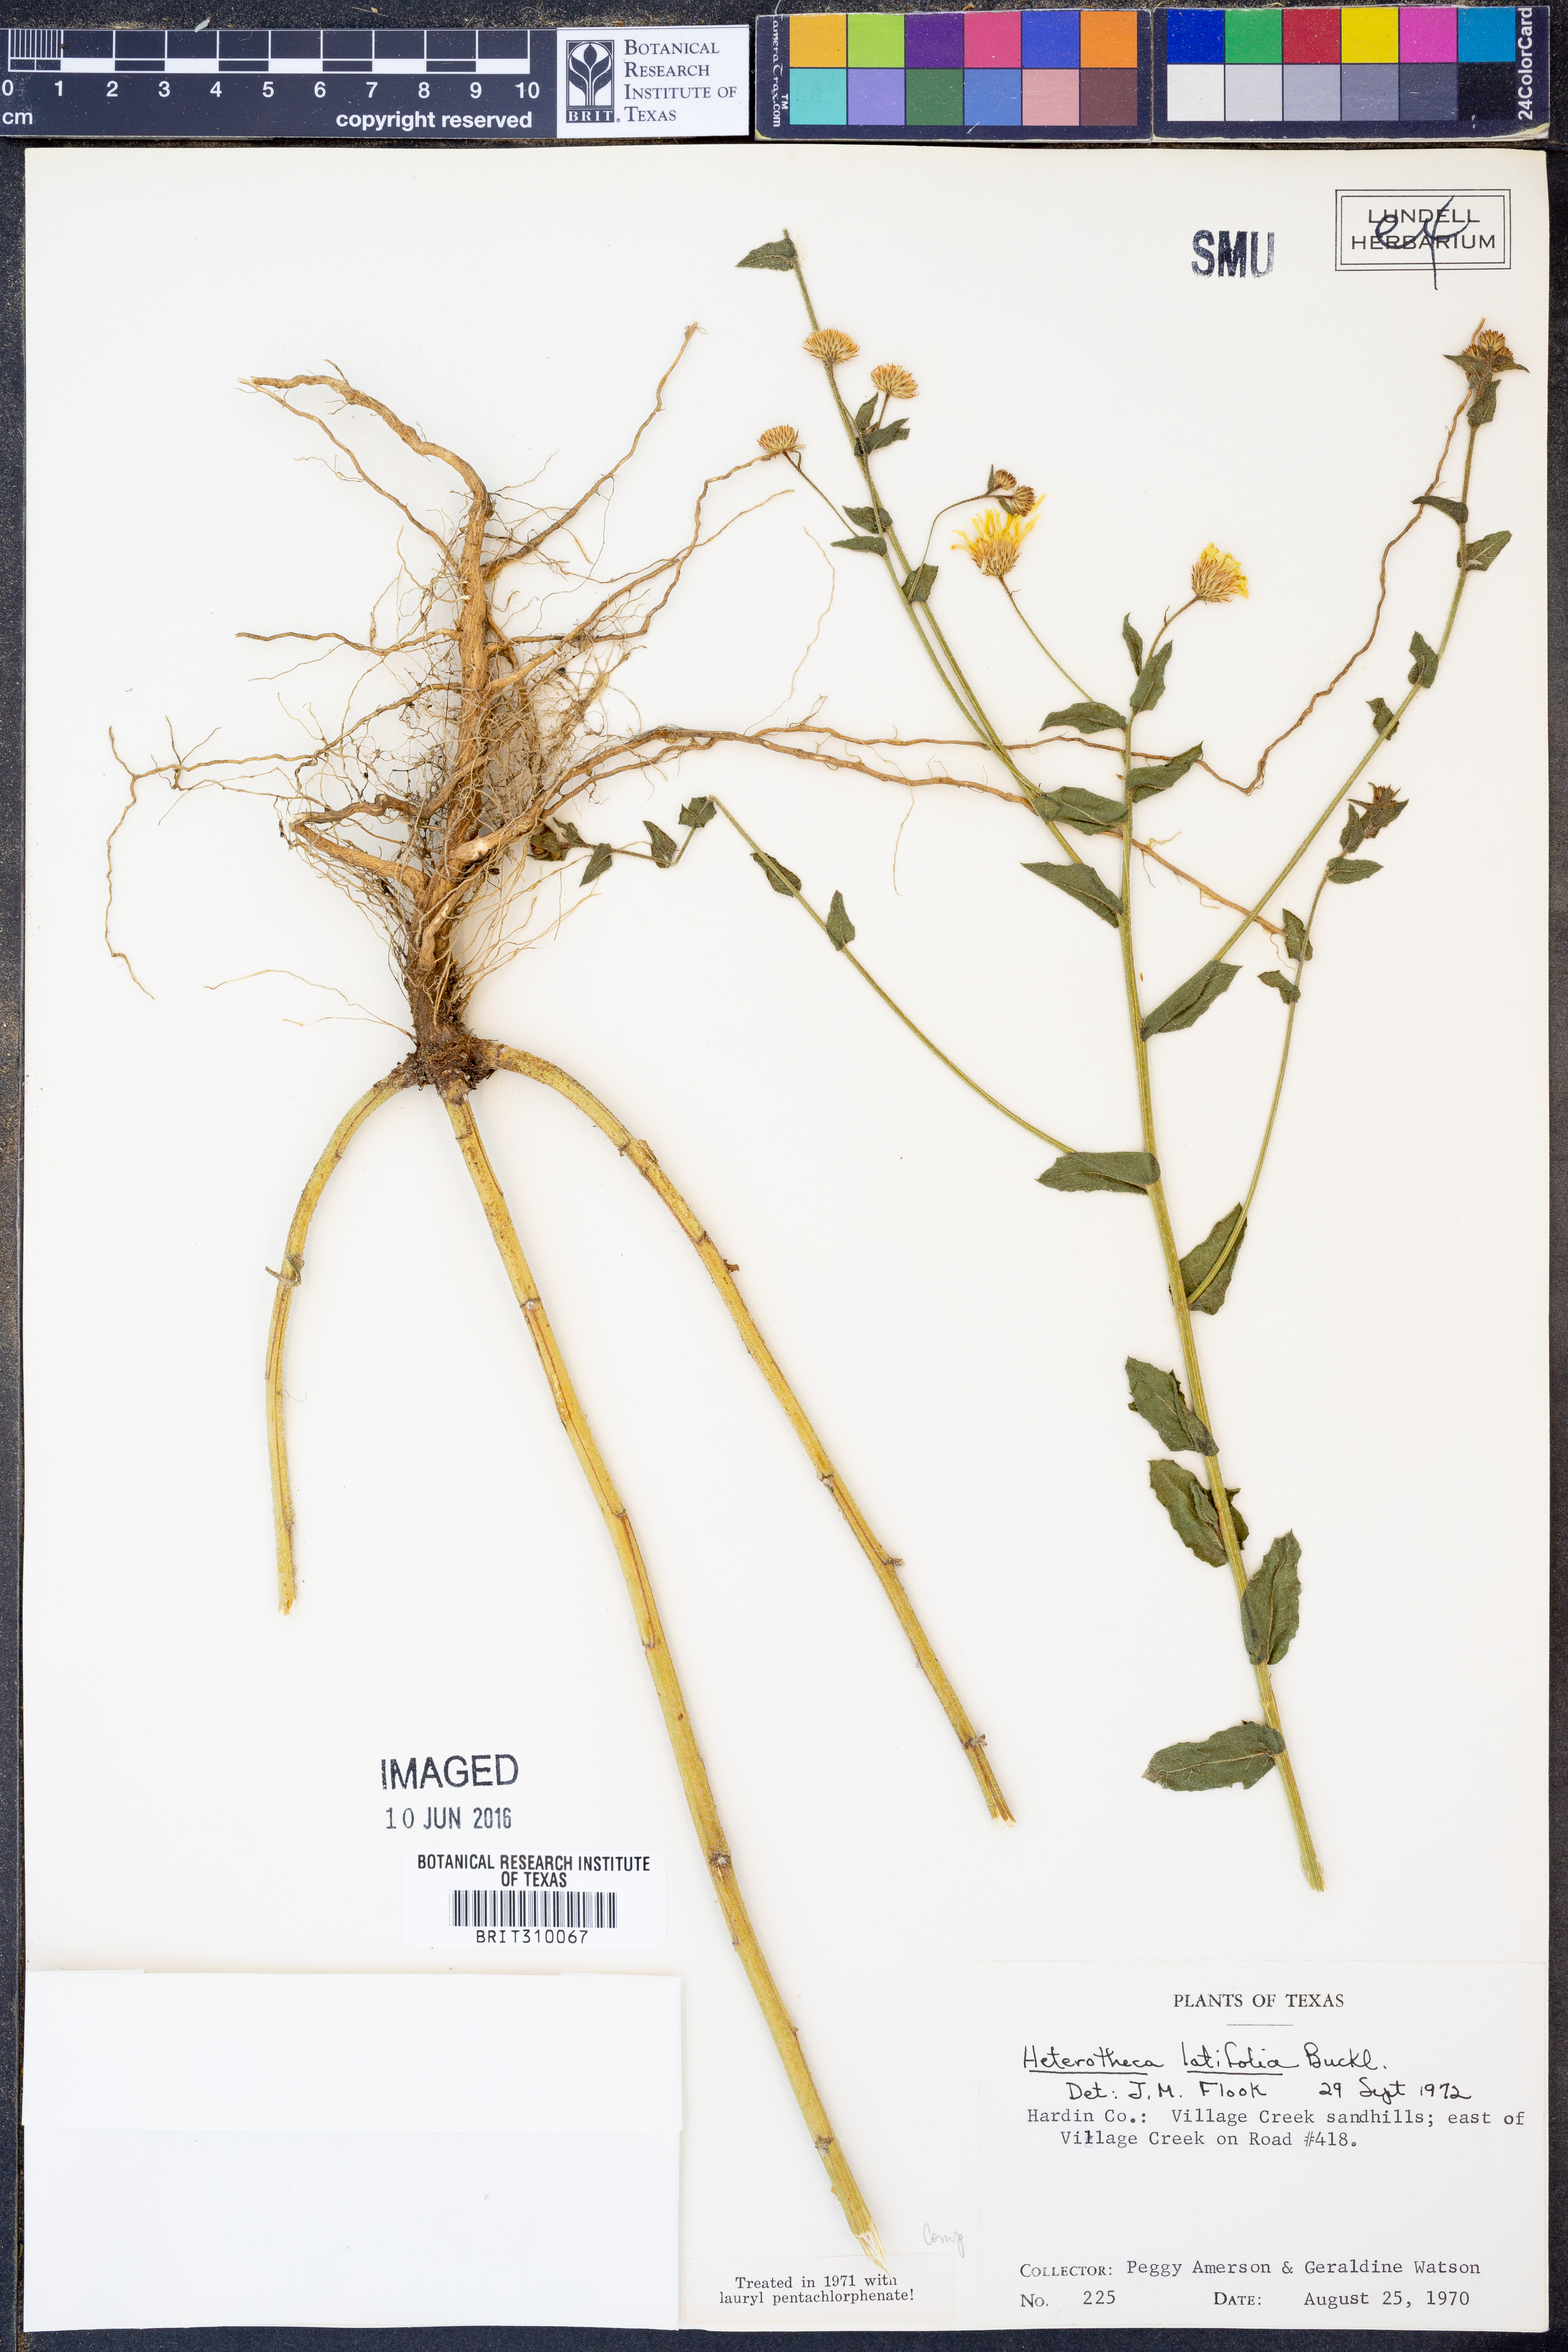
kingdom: Plantae
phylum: Tracheophyta
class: Magnoliopsida
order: Asterales
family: Asteraceae
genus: Heterotheca
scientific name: Heterotheca subaxillaris
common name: Camphorweed
